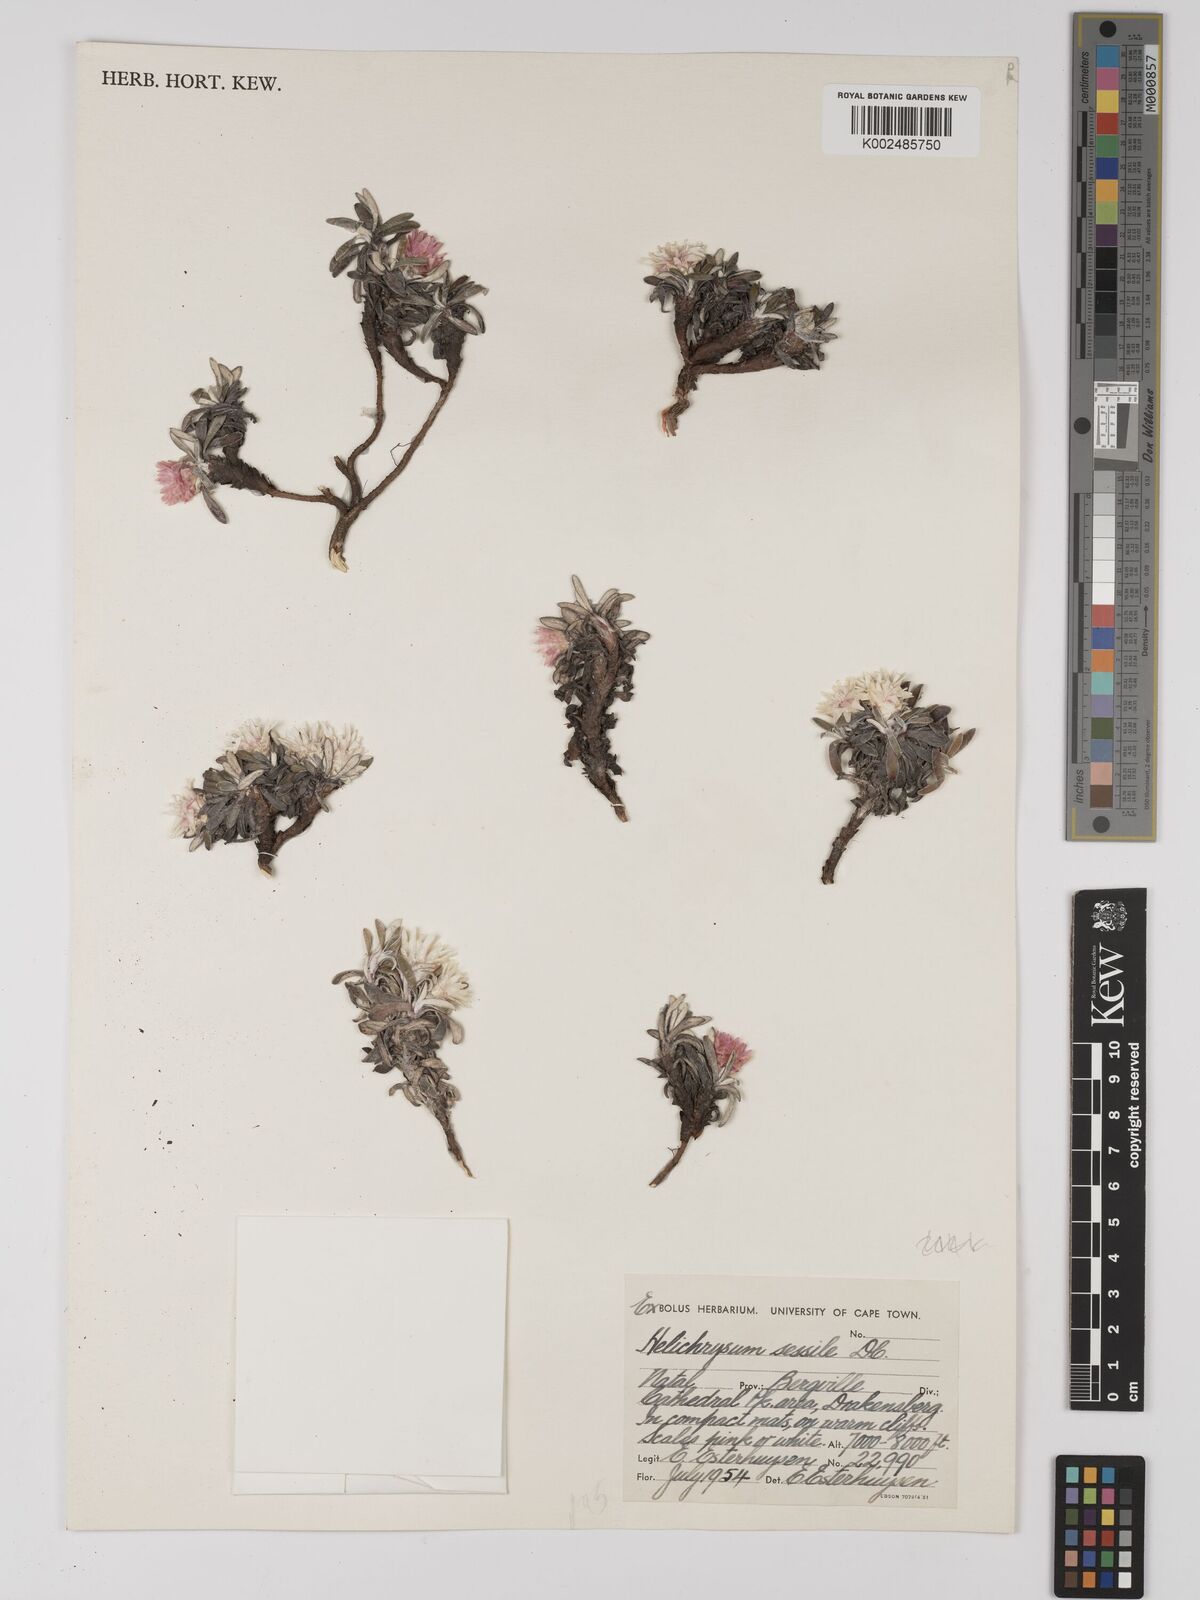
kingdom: Plantae
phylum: Tracheophyta
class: Magnoliopsida
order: Asterales
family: Asteraceae
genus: Helichrysum
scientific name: Helichrysum sessilioides
